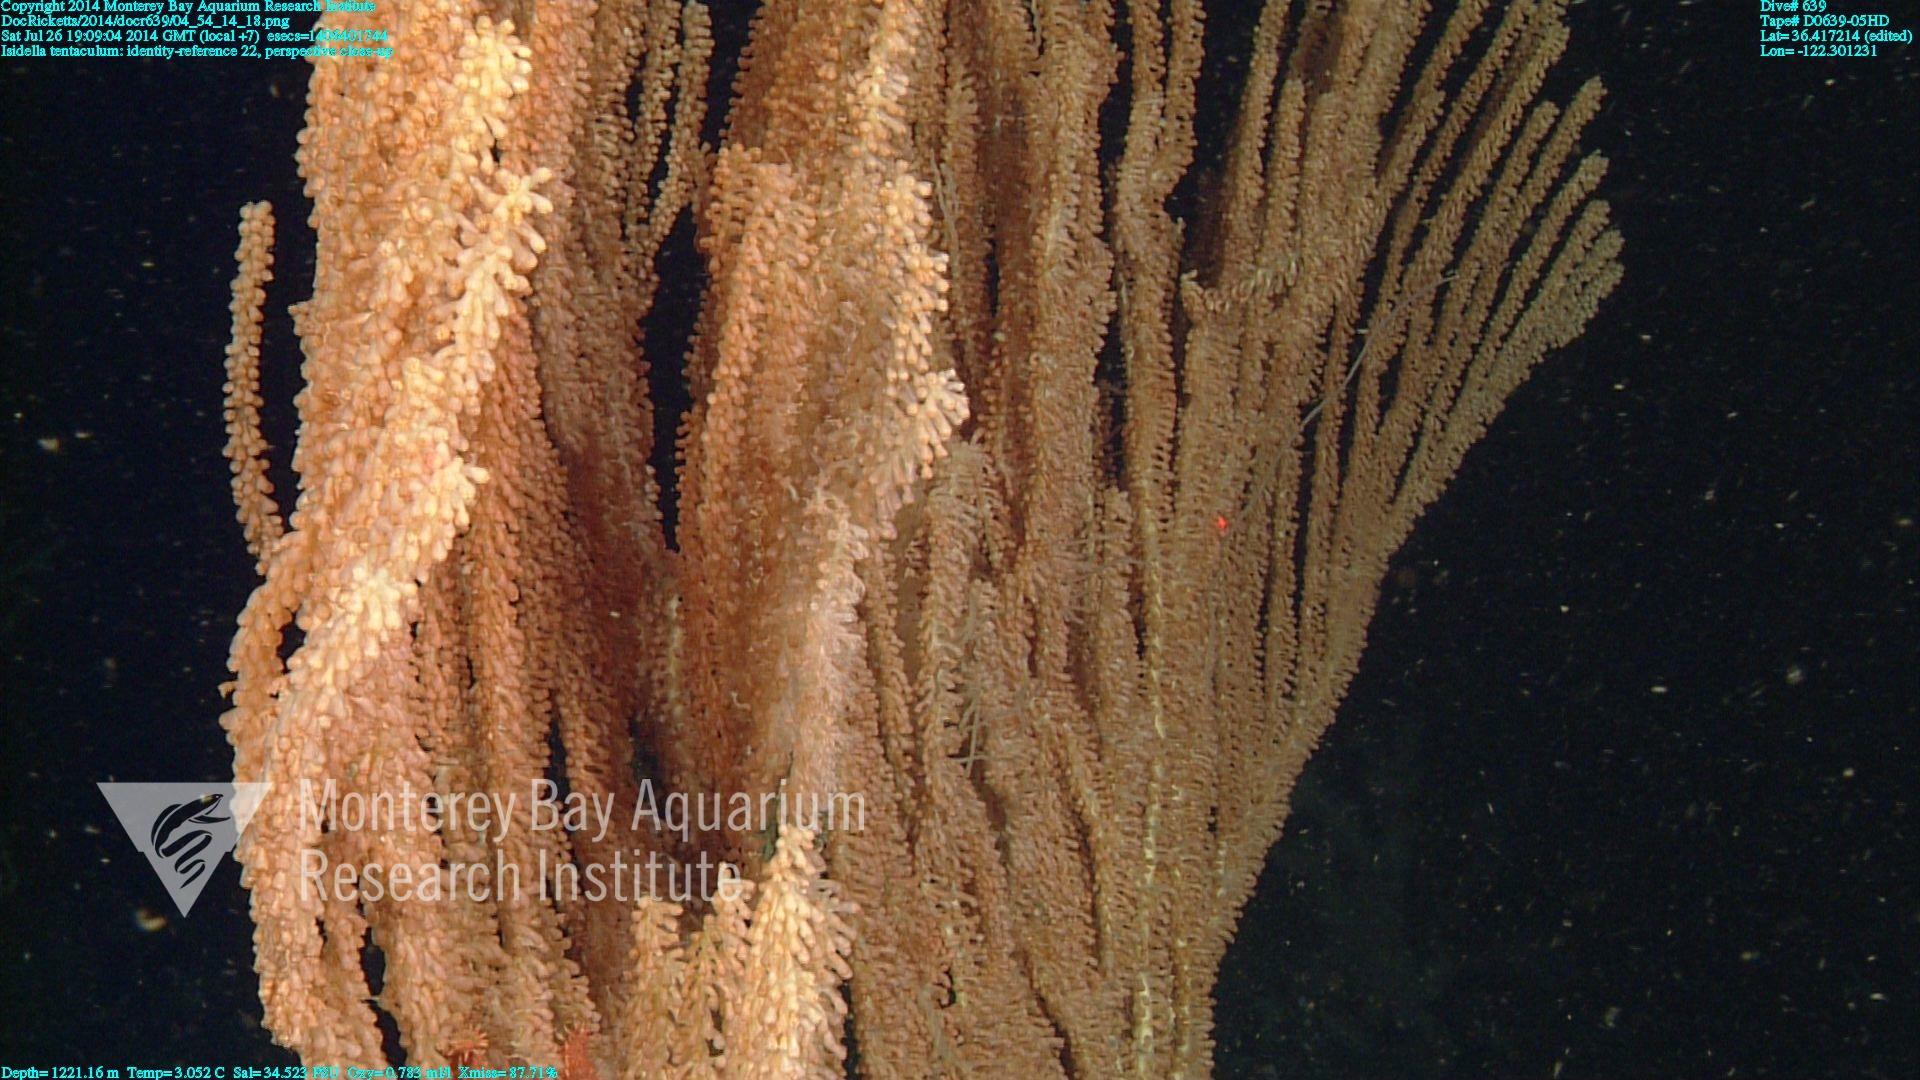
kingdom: Animalia
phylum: Cnidaria
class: Anthozoa
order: Scleralcyonacea
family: Keratoisididae
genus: Isidella
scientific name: Isidella tentaculum
